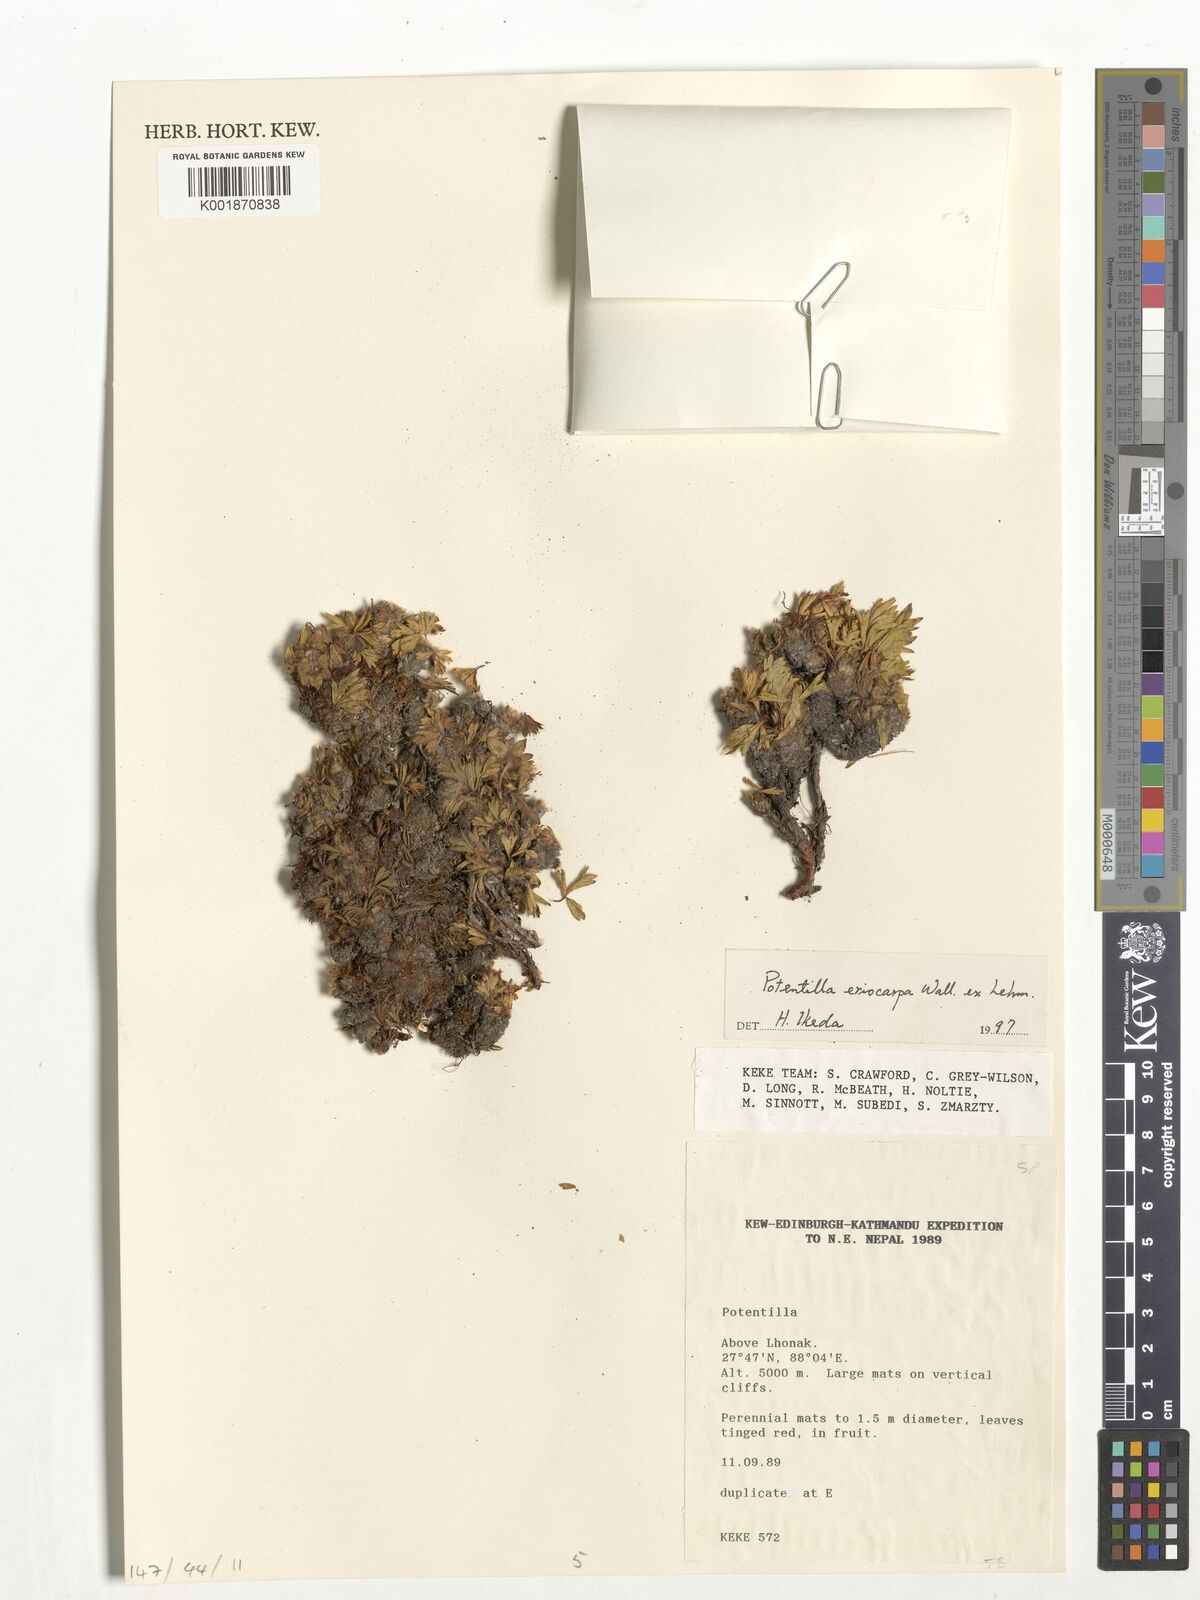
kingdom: Plantae
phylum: Tracheophyta
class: Magnoliopsida
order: Rosales
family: Rosaceae
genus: Potentilla
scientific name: Potentilla eriocarpa
